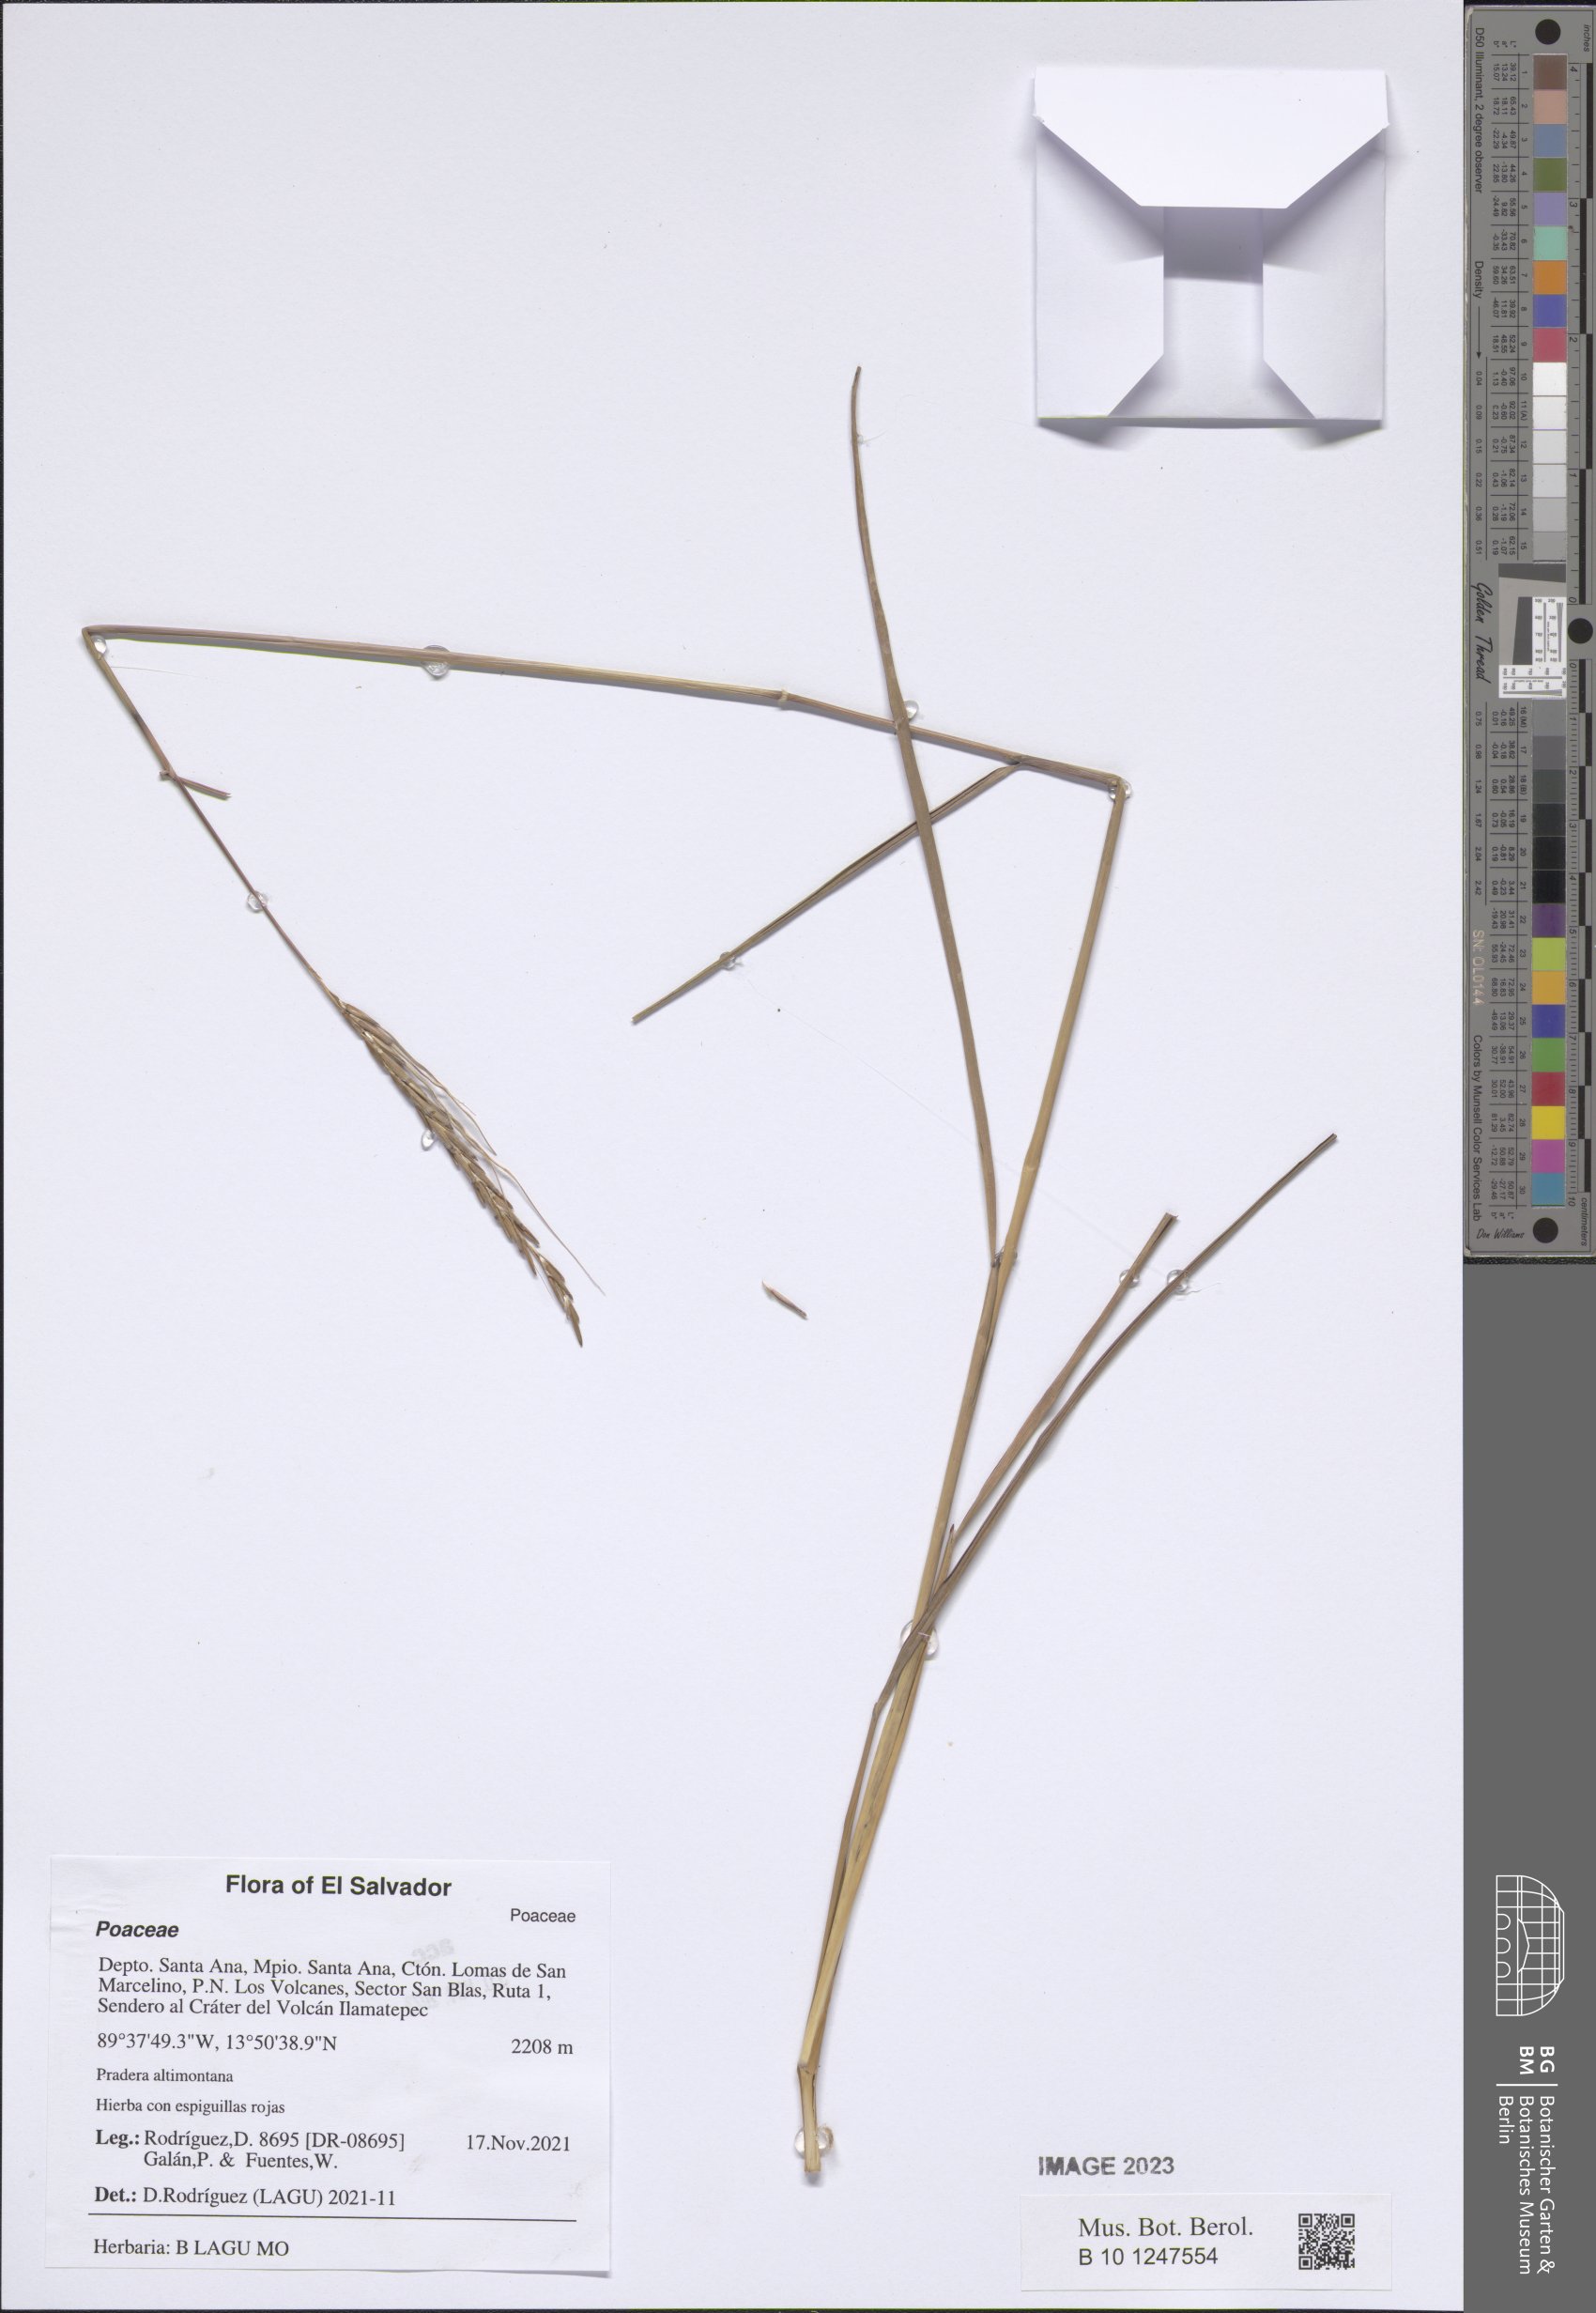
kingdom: Plantae
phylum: Tracheophyta
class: Liliopsida
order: Poales
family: Poaceae
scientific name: Poaceae
